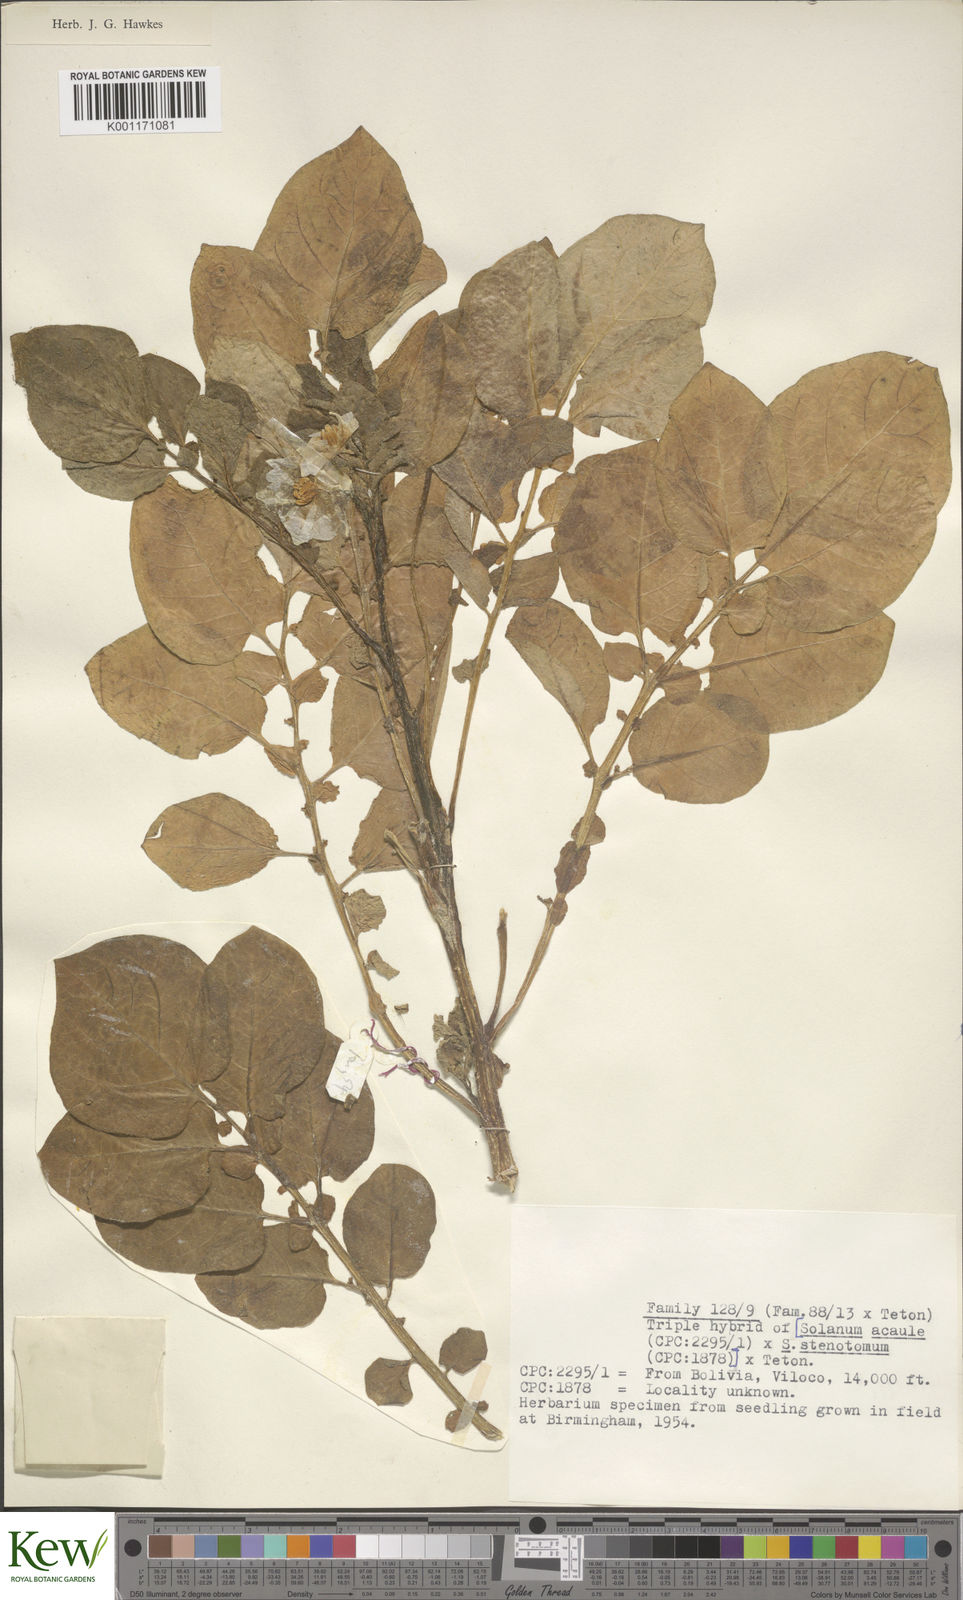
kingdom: Plantae
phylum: Tracheophyta
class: Magnoliopsida
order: Solanales
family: Solanaceae
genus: Solanum
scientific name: Solanum tuberosum
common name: Potato
